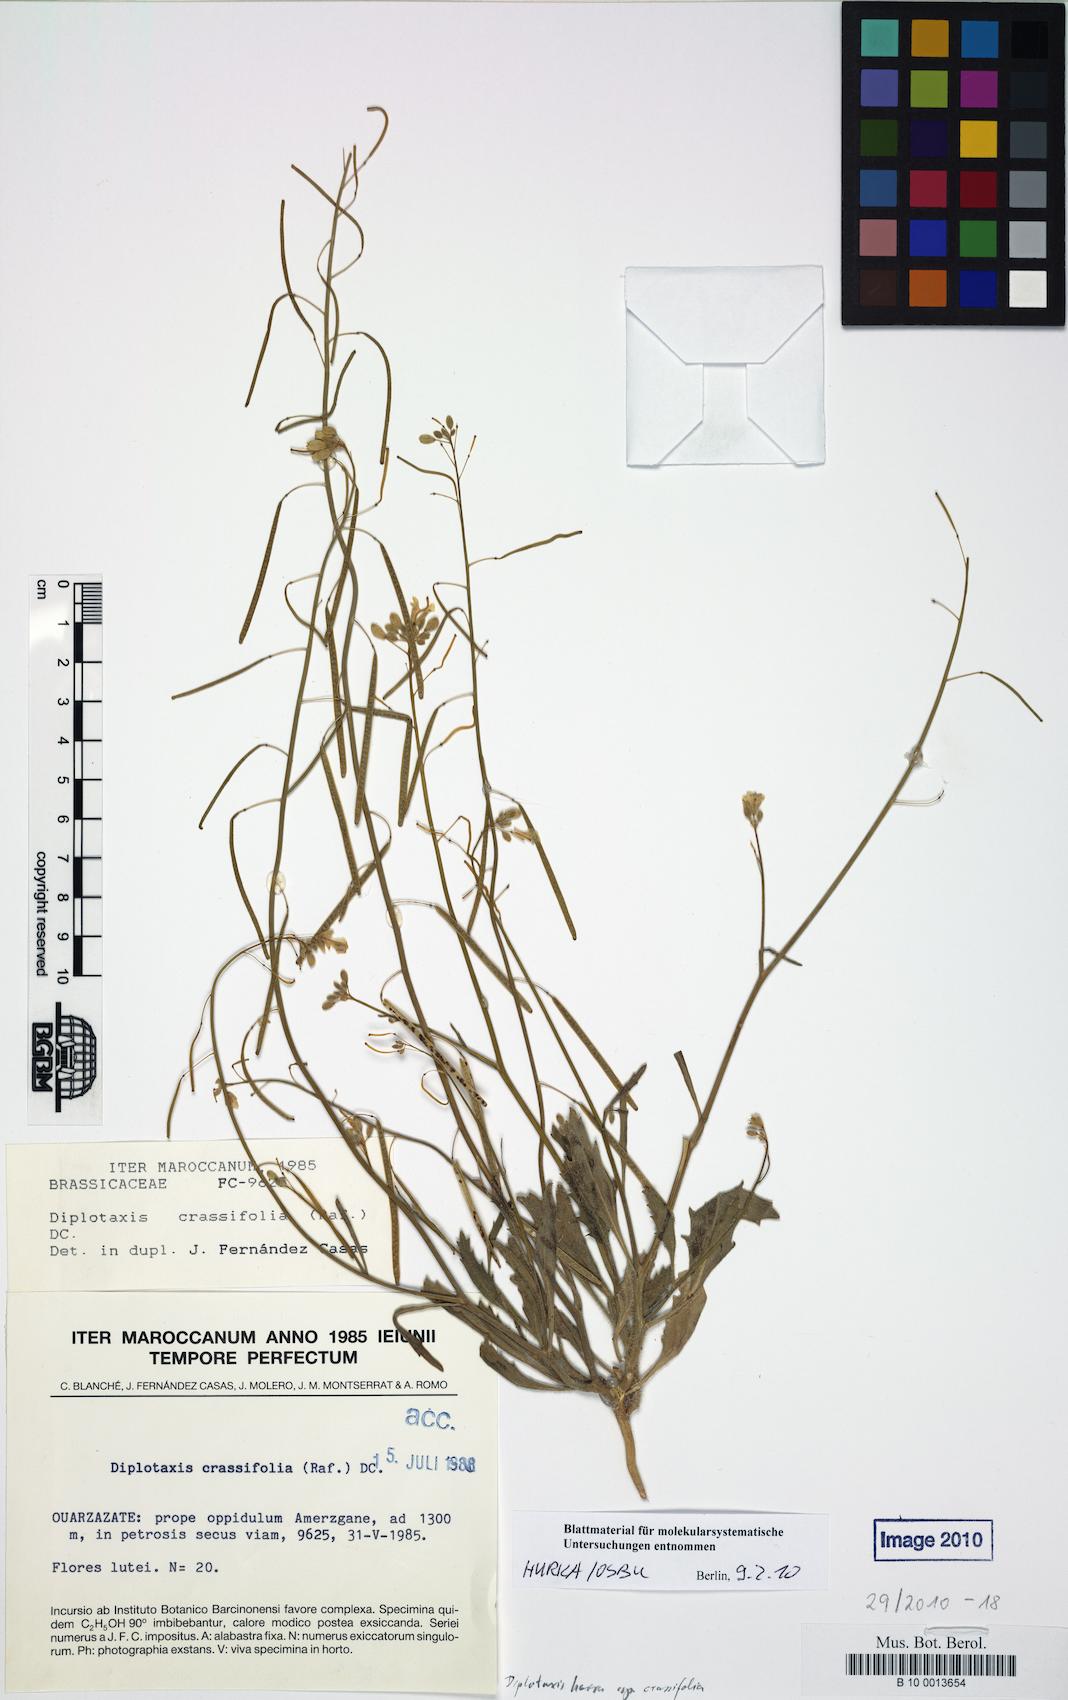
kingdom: Plantae
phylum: Tracheophyta
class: Magnoliopsida
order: Brassicales
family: Brassicaceae
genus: Diplotaxis
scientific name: Diplotaxis harra
